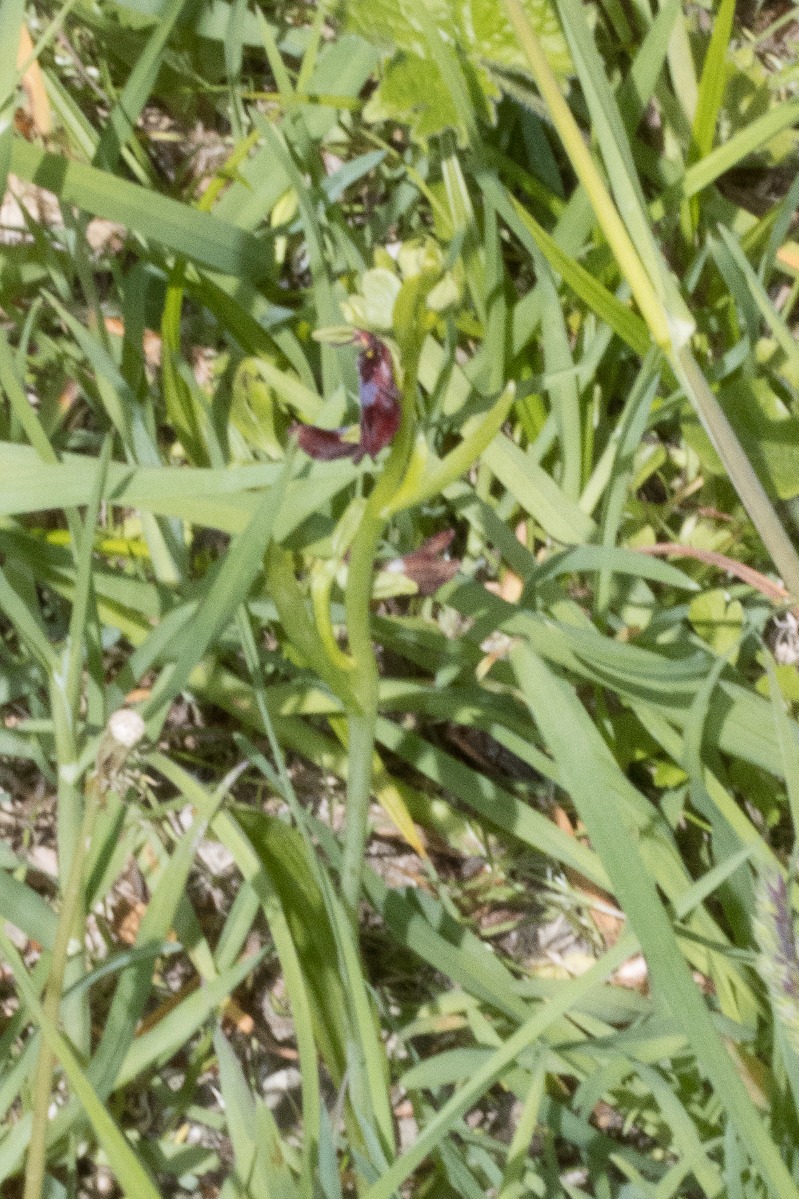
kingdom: Plantae
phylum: Tracheophyta
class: Liliopsida
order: Asparagales
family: Orchidaceae
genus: Ophrys
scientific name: Ophrys insectifera
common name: Flueblomst
